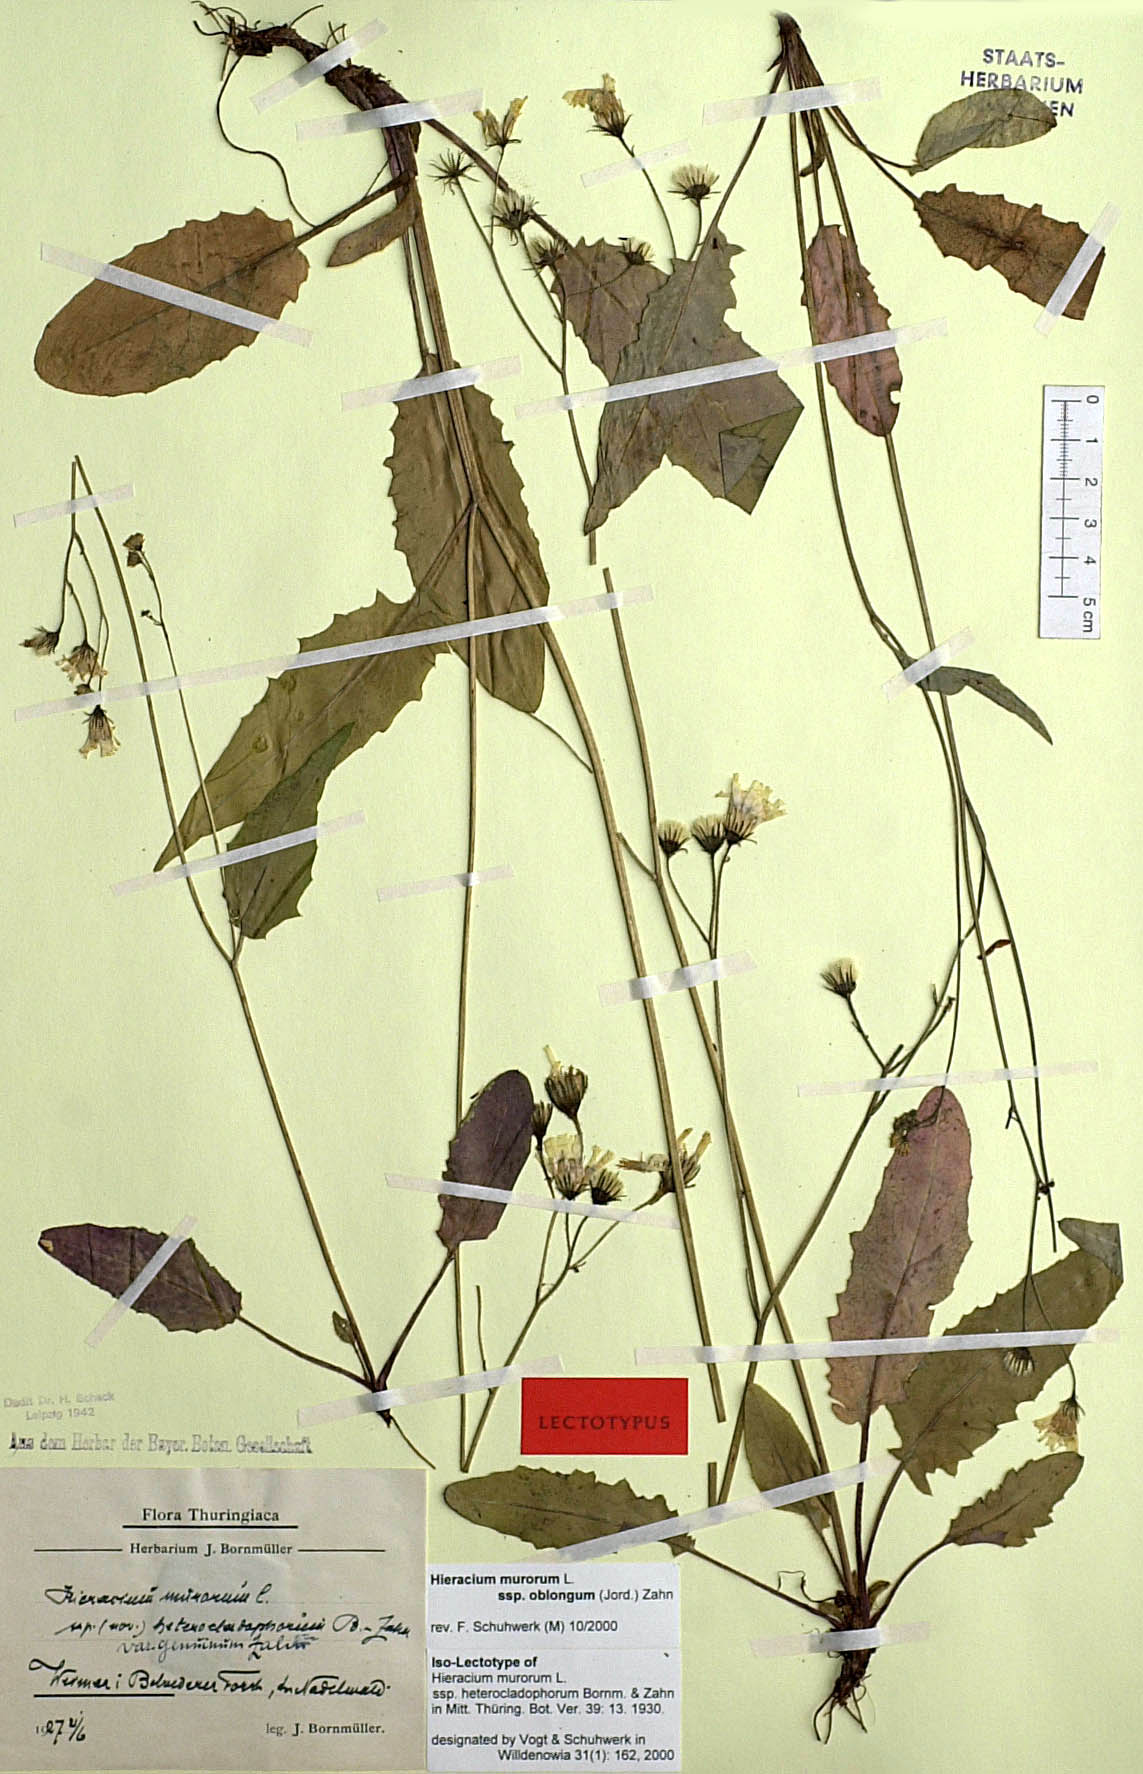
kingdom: Plantae
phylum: Tracheophyta
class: Magnoliopsida
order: Asterales
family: Asteraceae
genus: Hieracium
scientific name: Hieracium murorum
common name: Wall hawkweed
